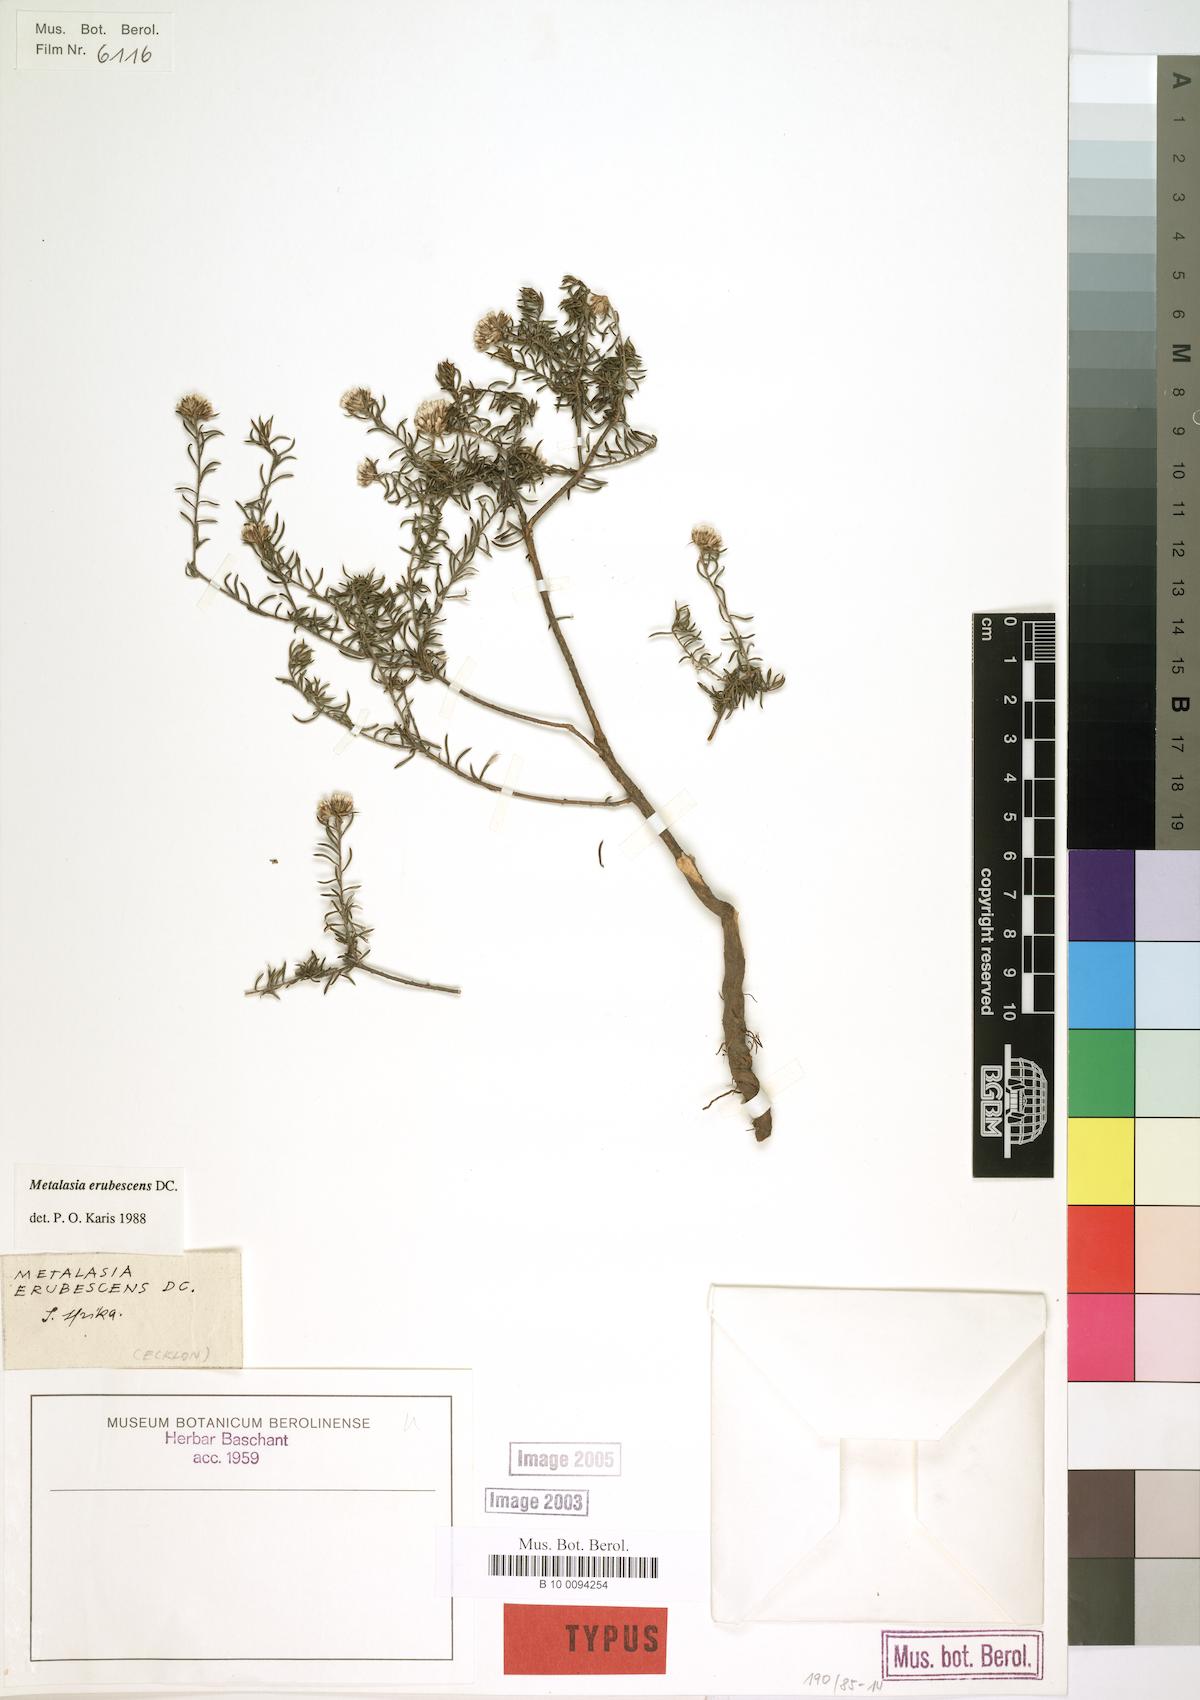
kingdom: Plantae
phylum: Tracheophyta
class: Magnoliopsida
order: Asterales
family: Asteraceae
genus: Metalasia
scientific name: Metalasia erubescens
